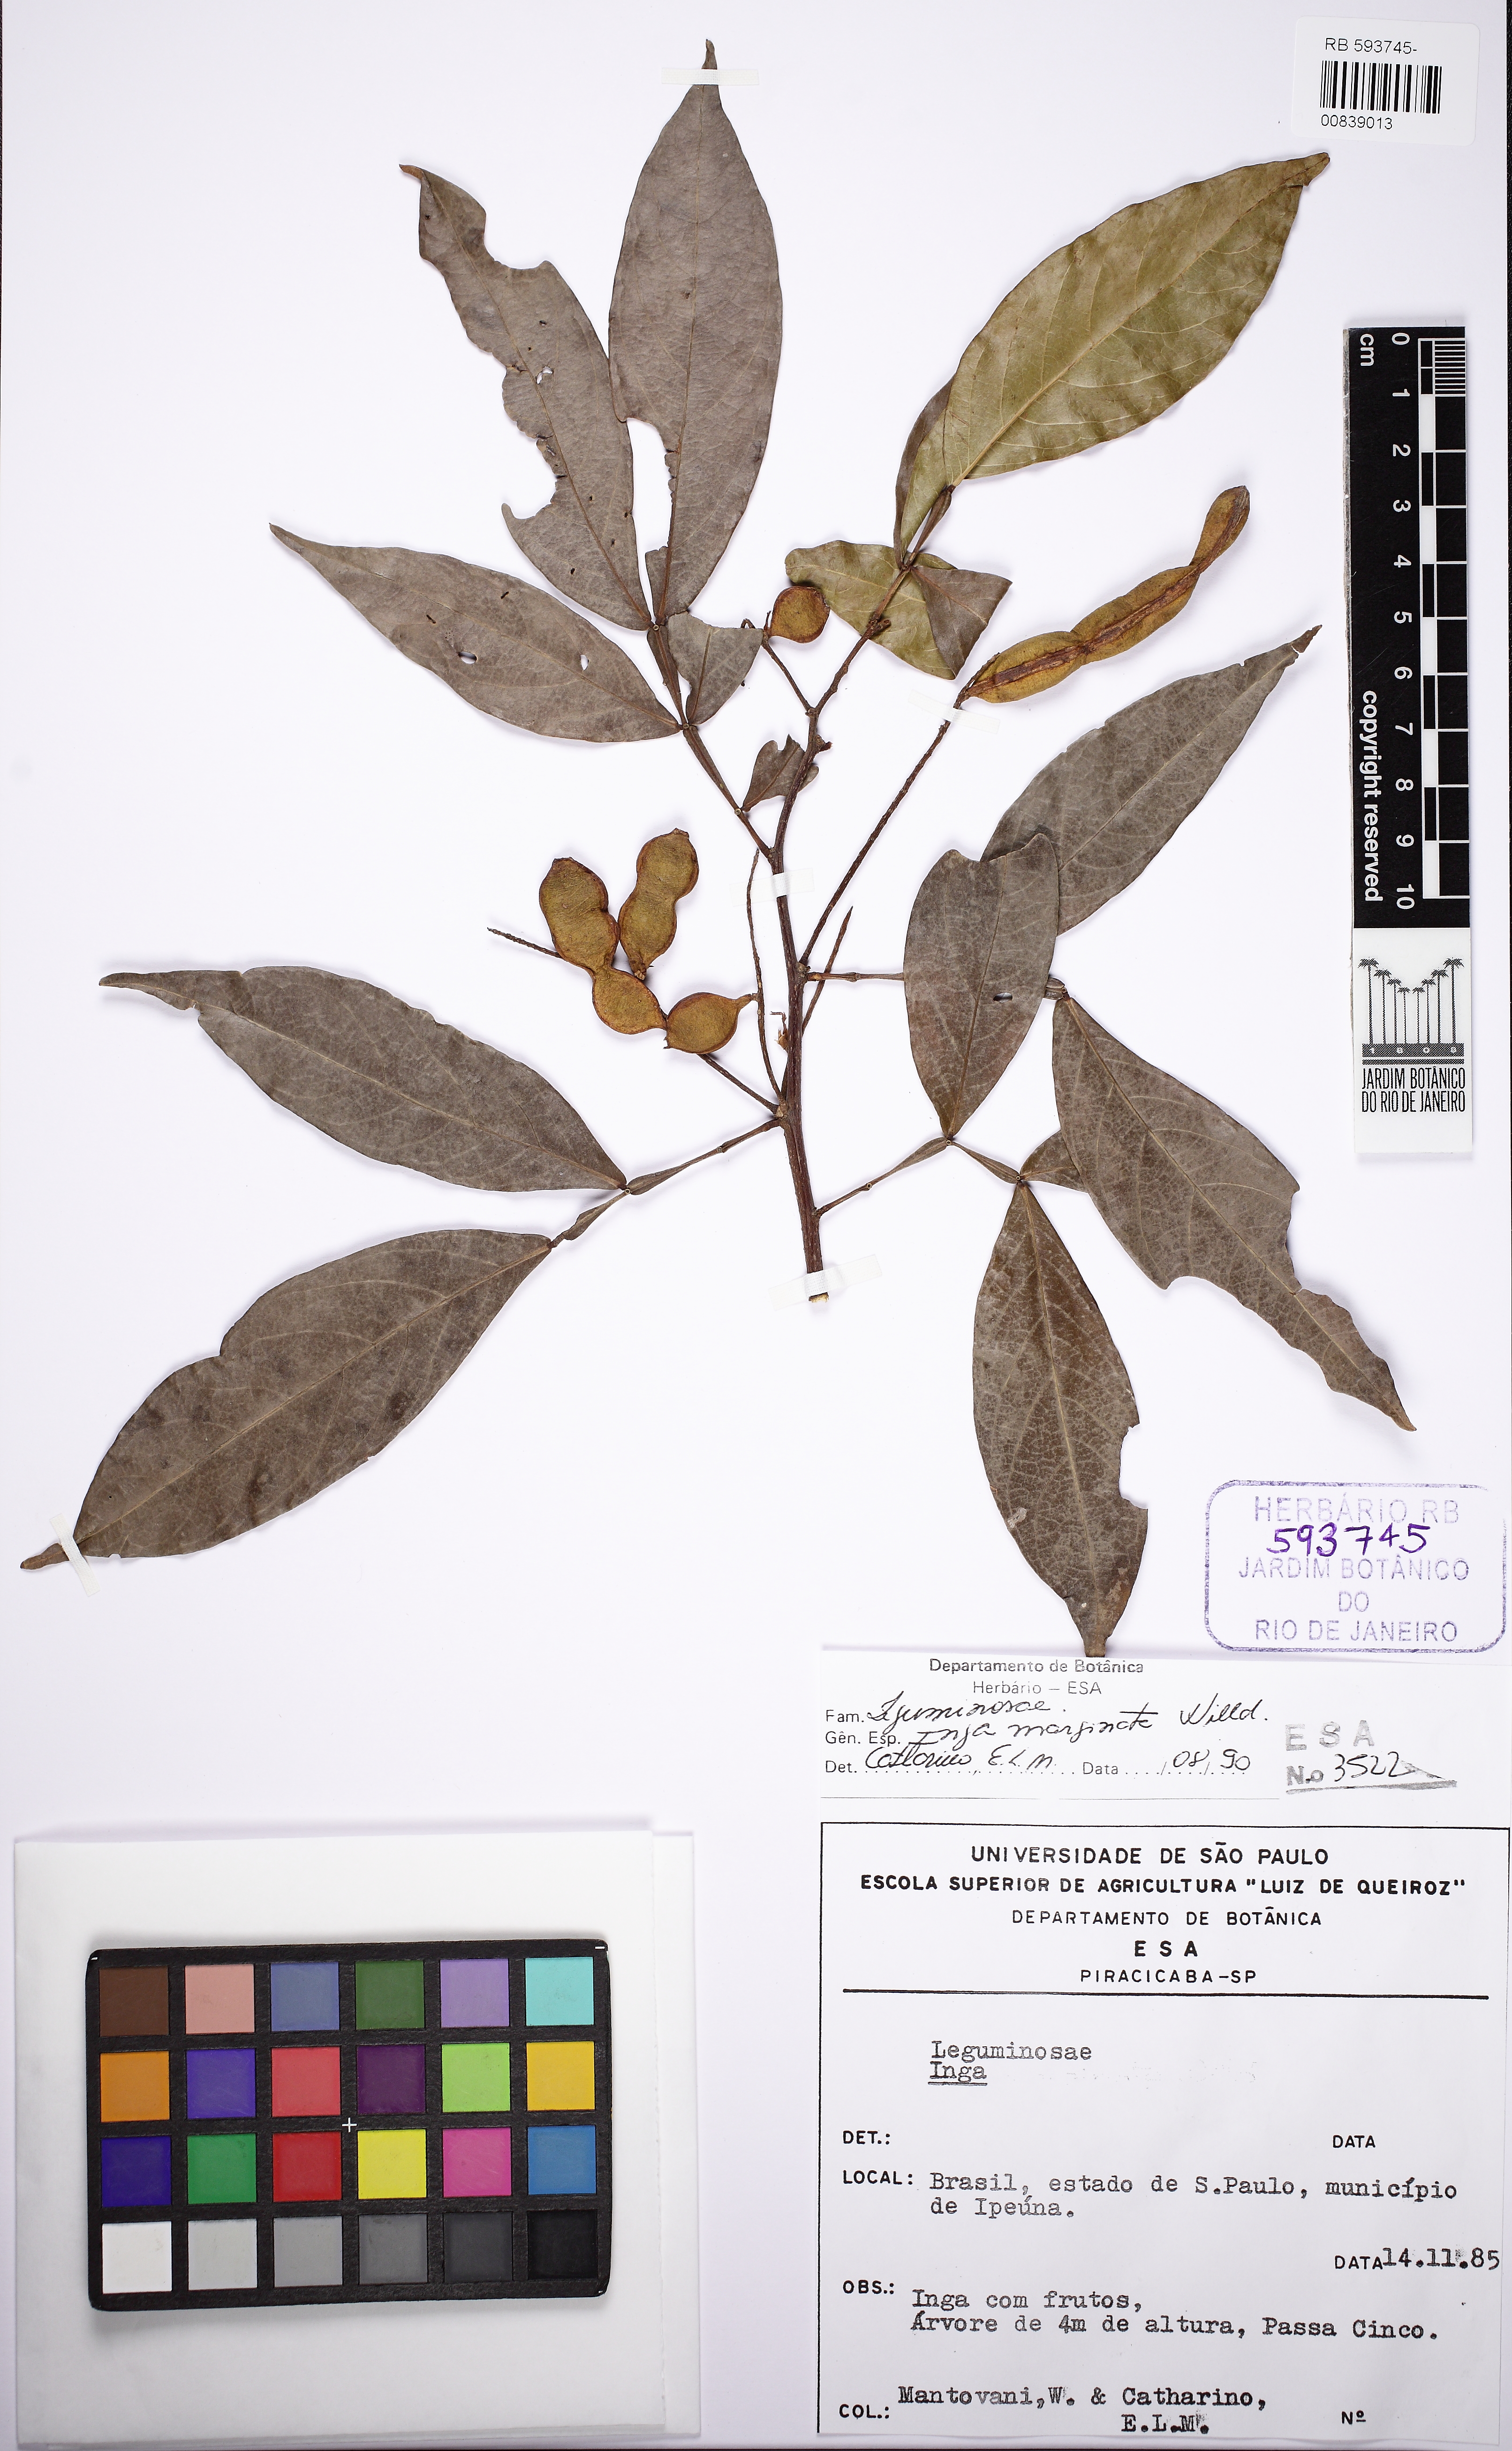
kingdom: Plantae
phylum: Tracheophyta
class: Magnoliopsida
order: Fabales
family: Fabaceae
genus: Inga
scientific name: Inga marginata
